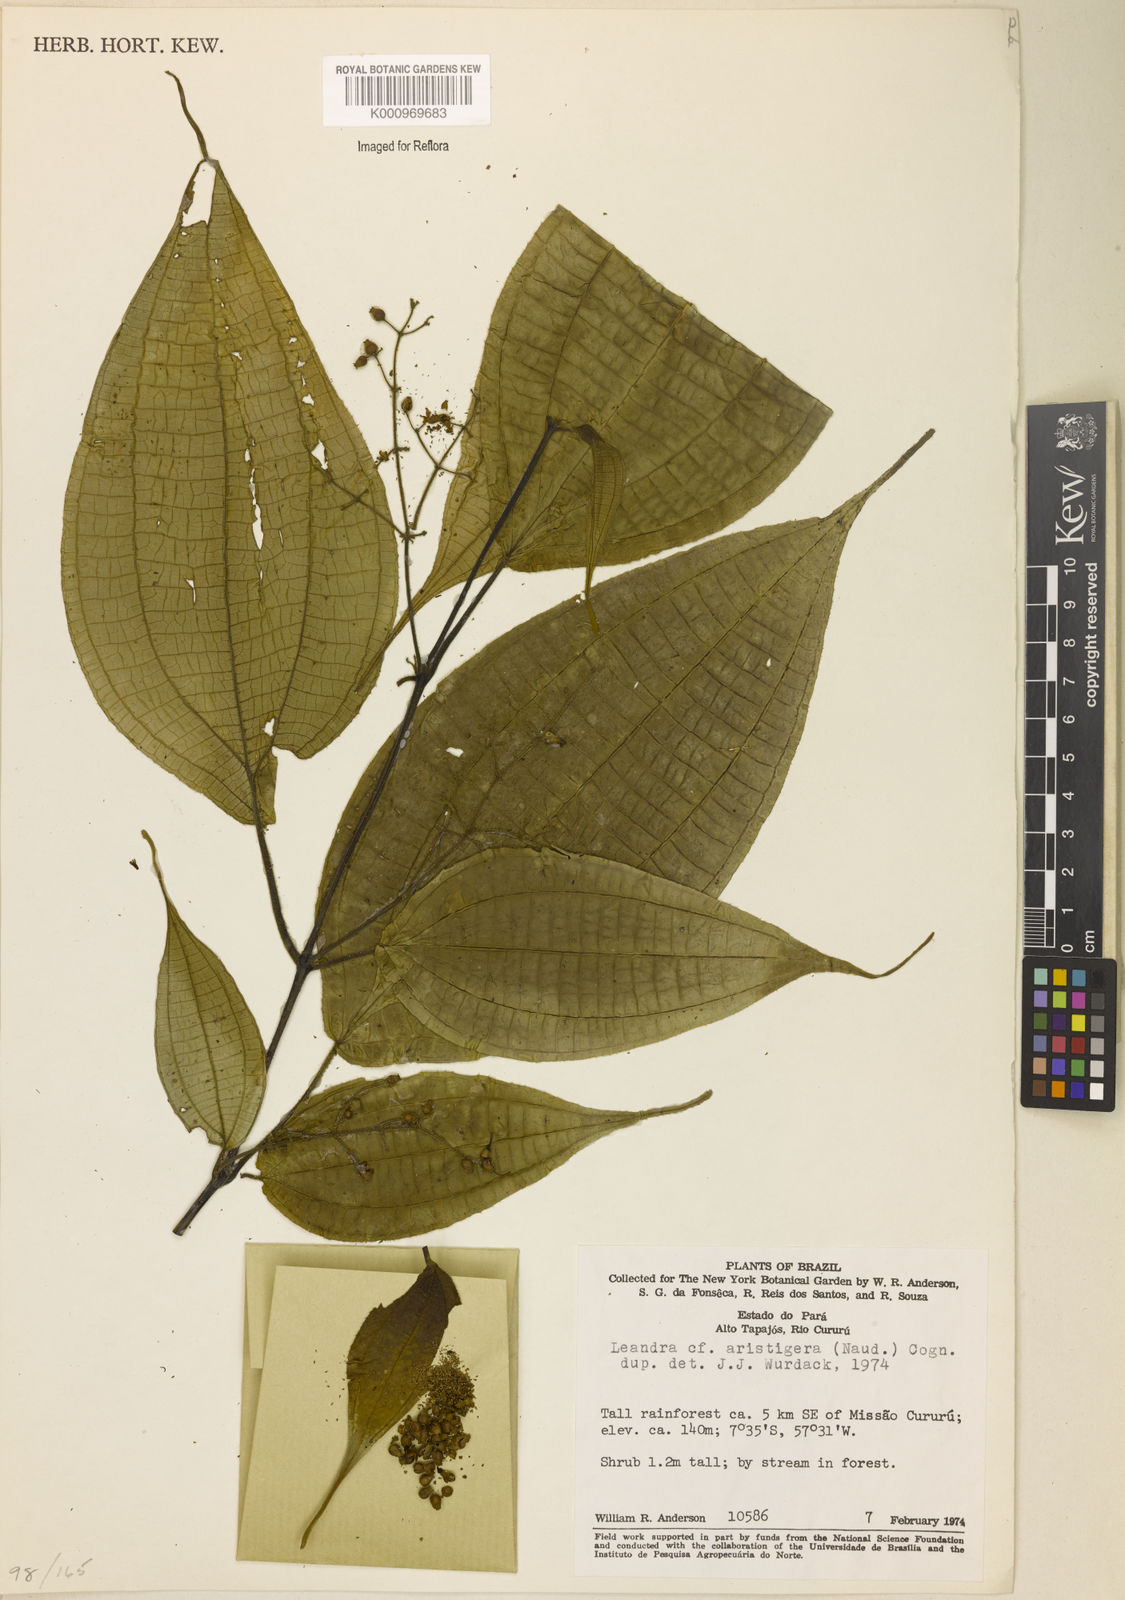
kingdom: Plantae
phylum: Tracheophyta
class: Magnoliopsida
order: Myrtales
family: Melastomataceae
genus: Miconia
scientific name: Miconia aristigera
